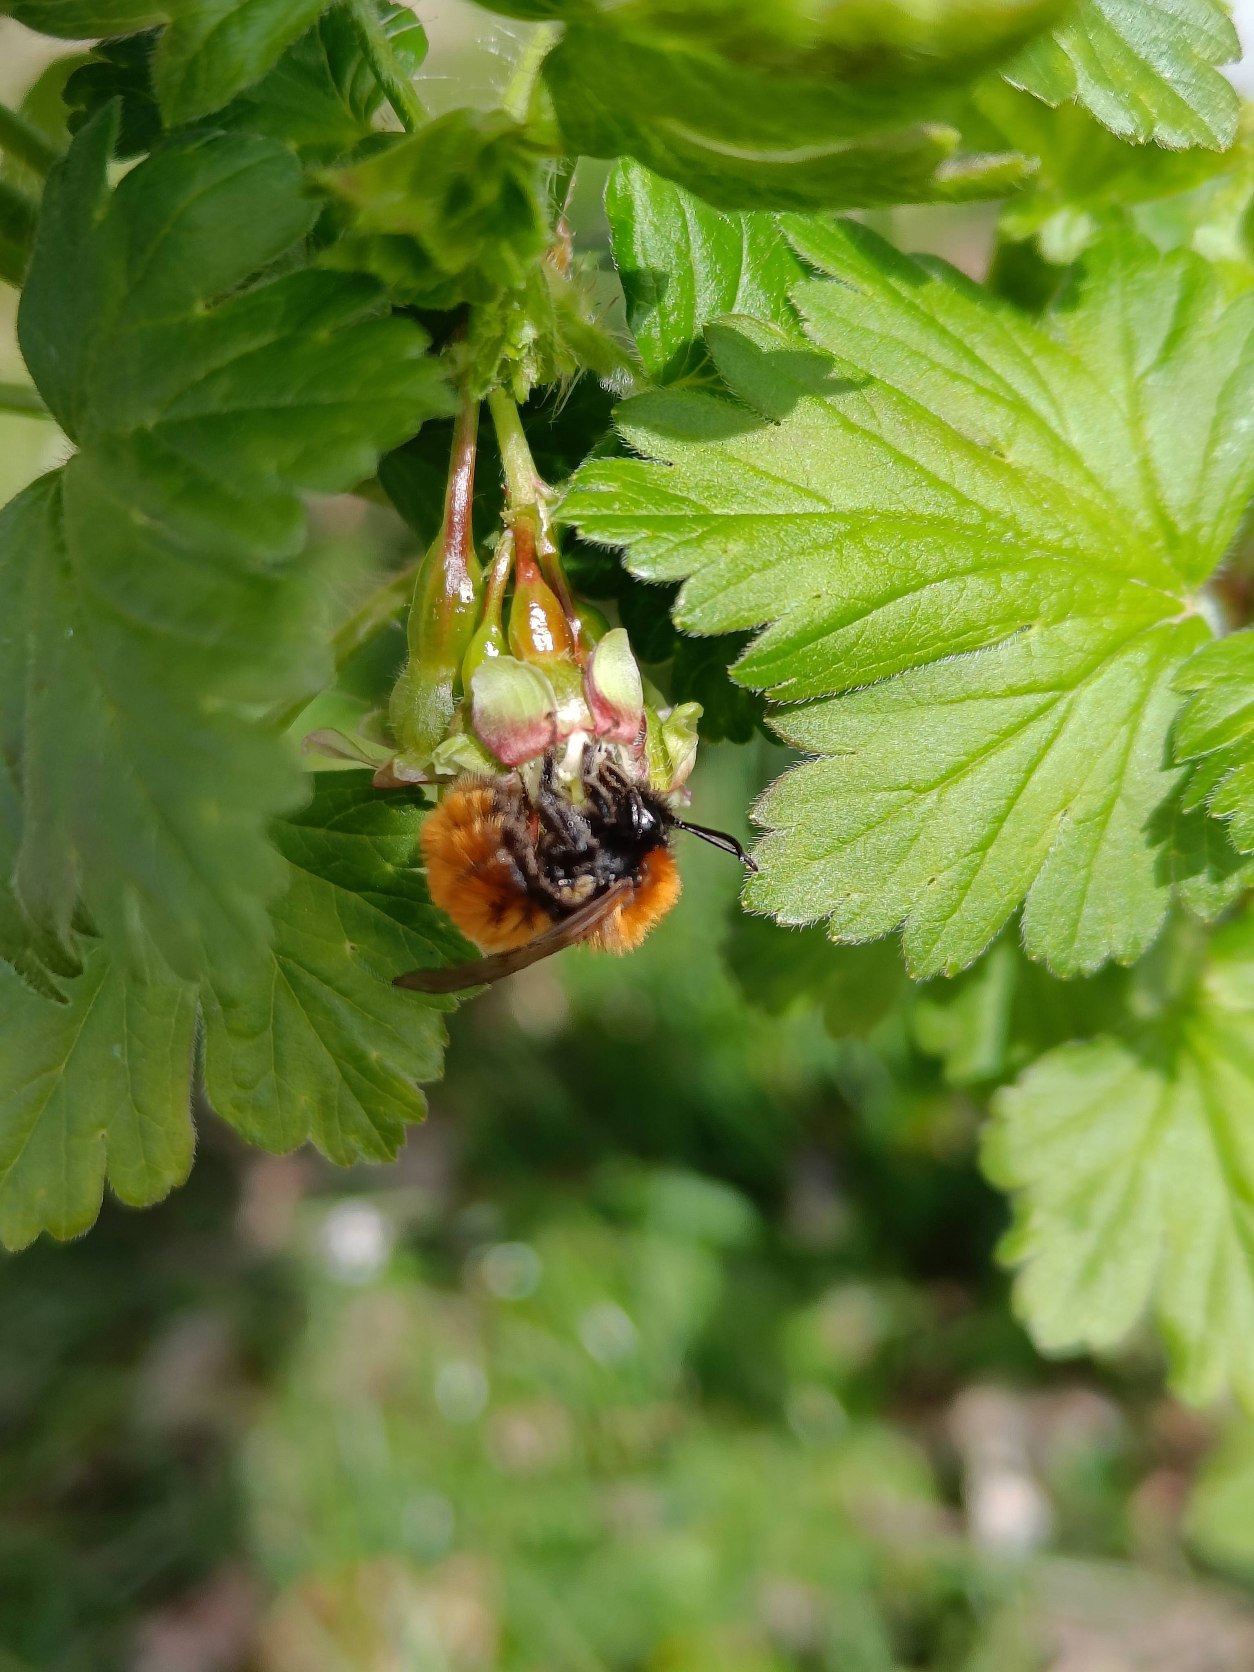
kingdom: Animalia
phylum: Arthropoda
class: Insecta
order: Hymenoptera
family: Andrenidae
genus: Andrena
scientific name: Andrena fulva
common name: Rødpelset jordbi
